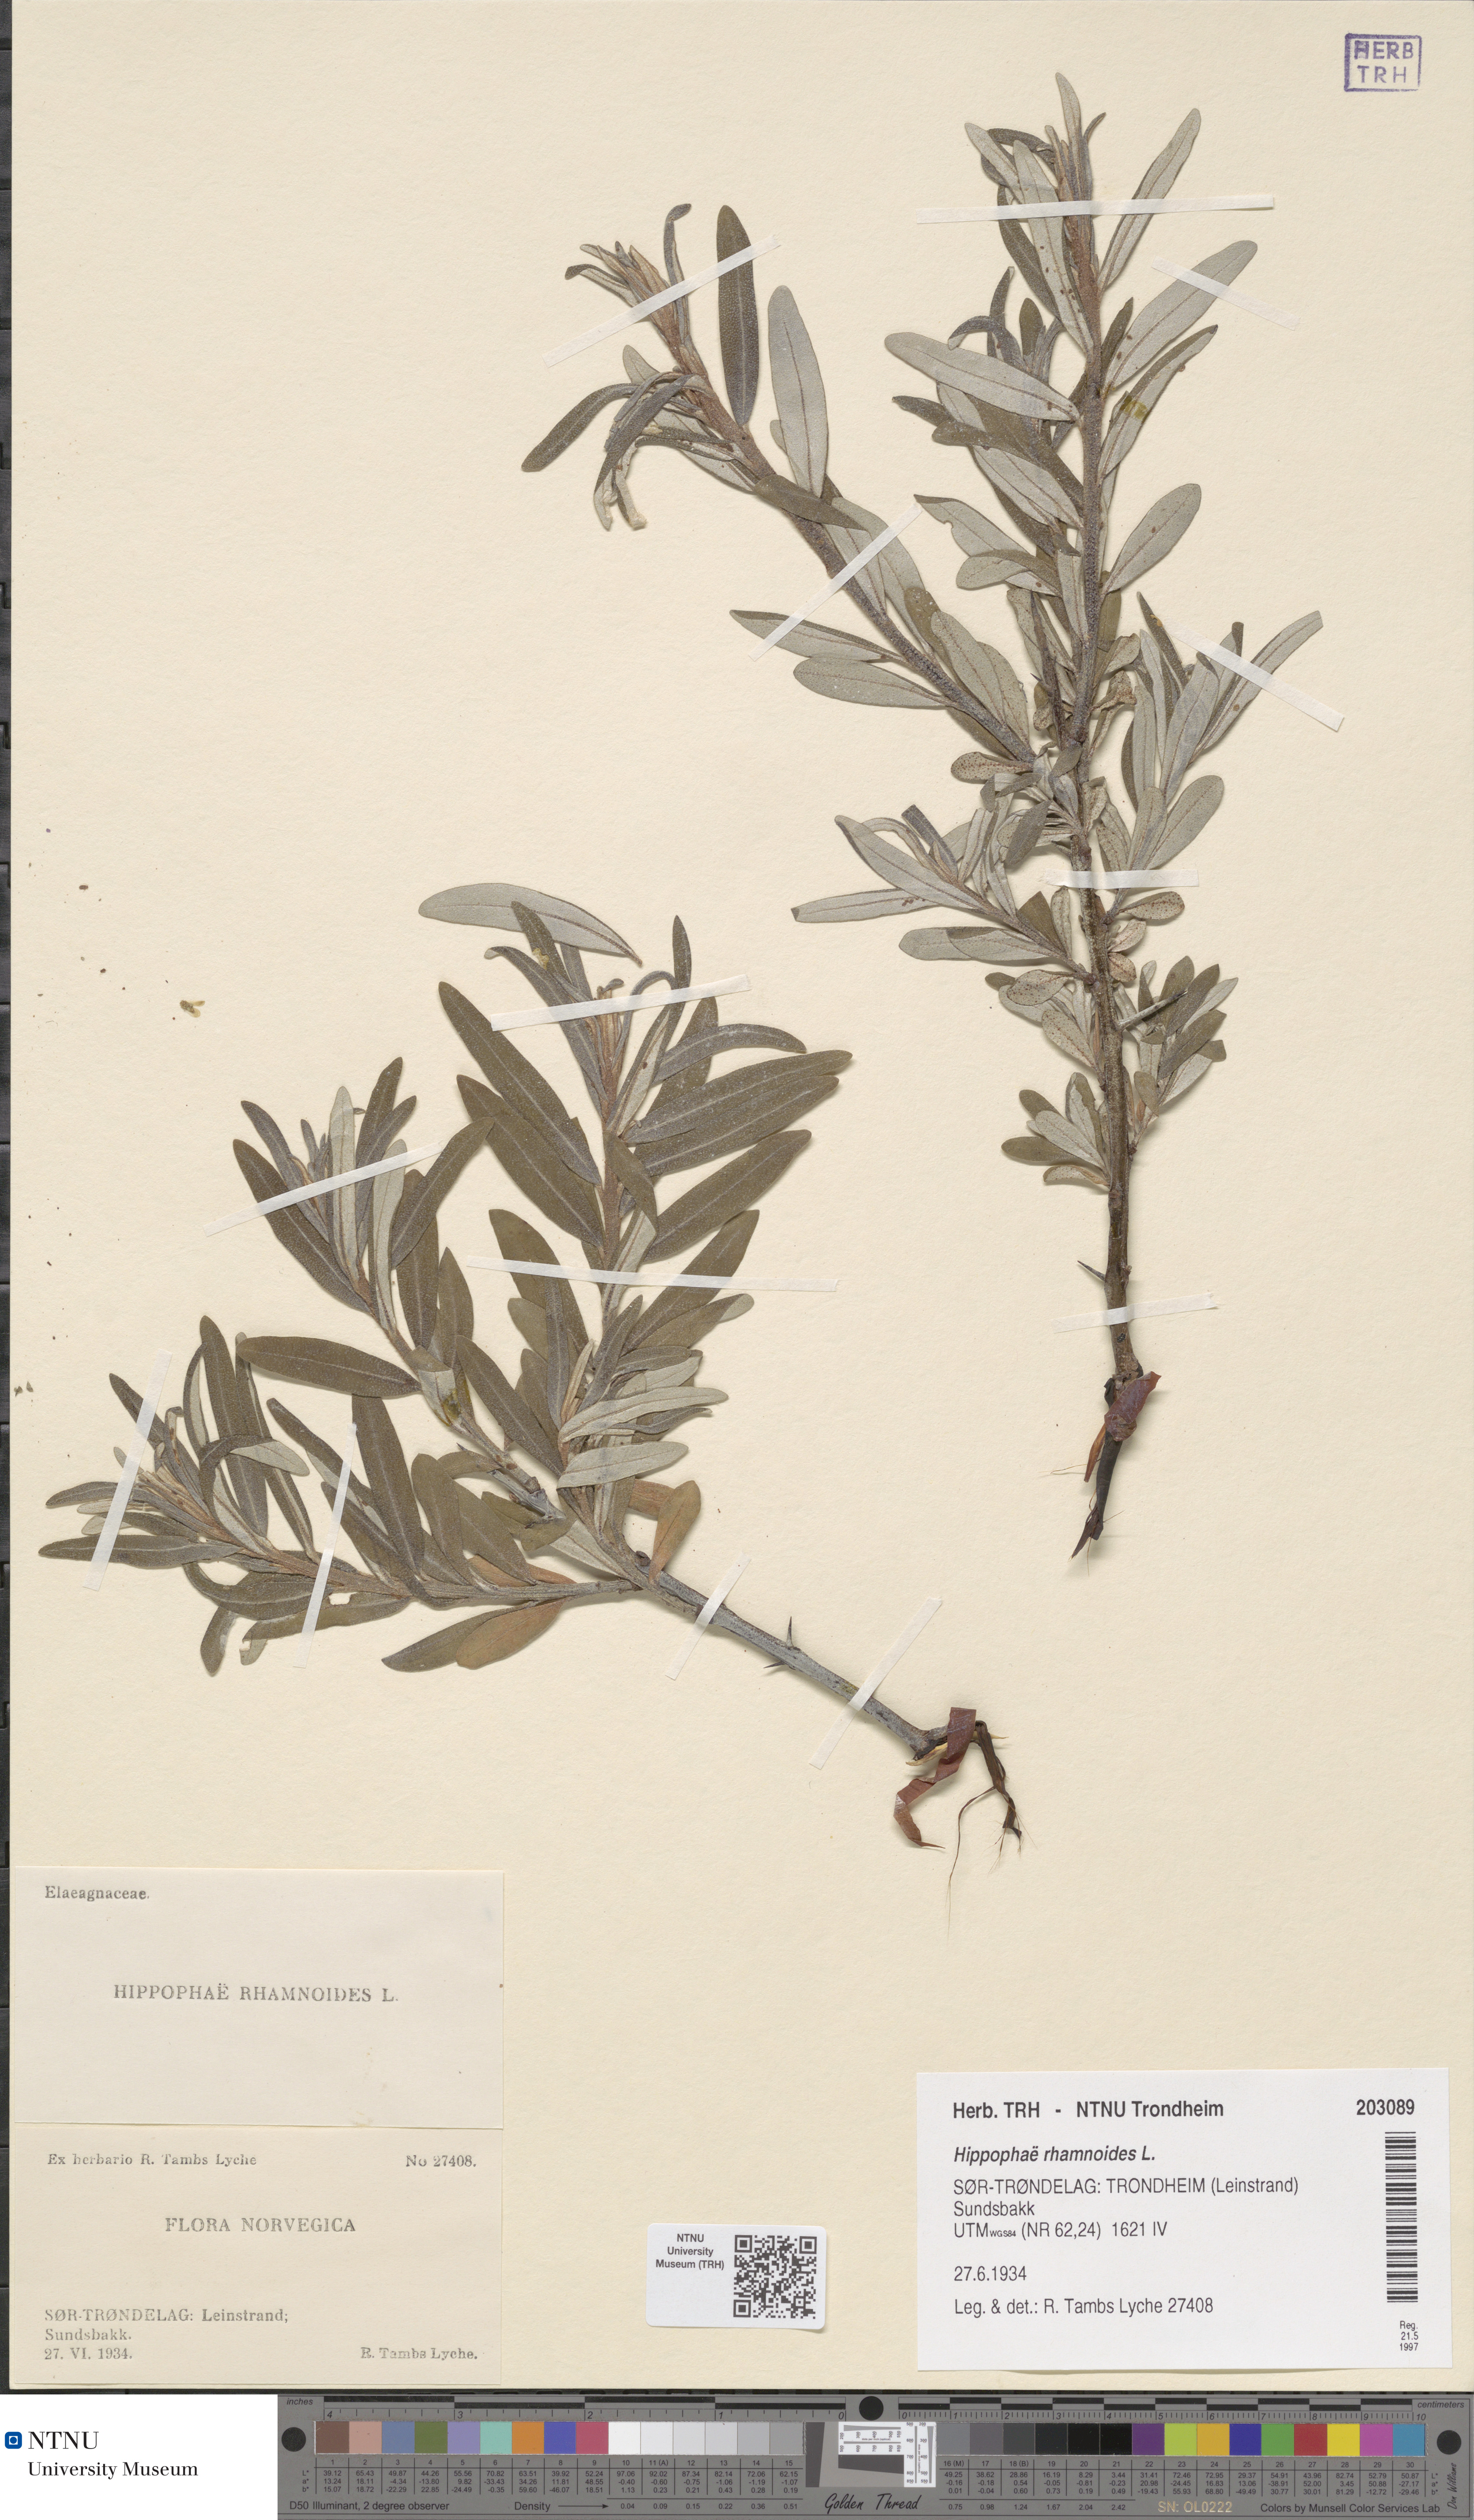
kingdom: Plantae
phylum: Tracheophyta
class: Magnoliopsida
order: Rosales
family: Elaeagnaceae
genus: Hippophae
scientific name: Hippophae rhamnoides
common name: Sea-buckthorn
